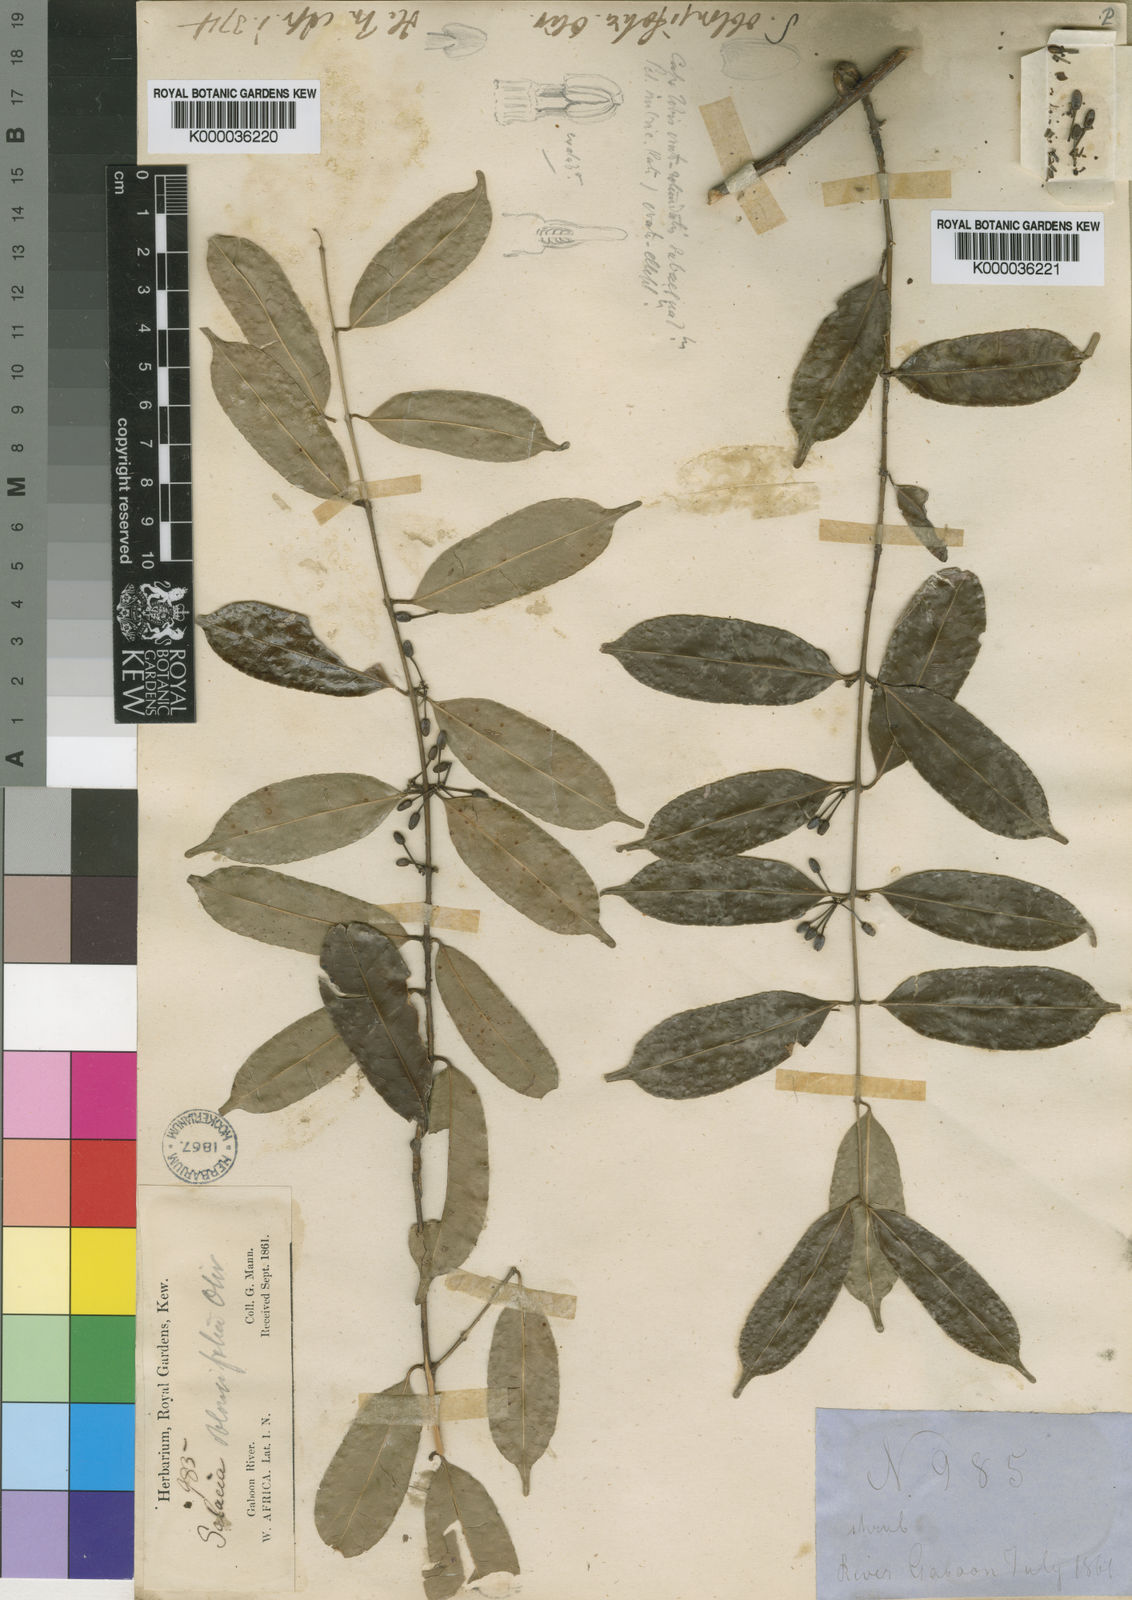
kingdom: Plantae
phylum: Tracheophyta
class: Magnoliopsida
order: Celastrales
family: Celastraceae
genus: Salacia
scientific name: Salacia oliveriana
